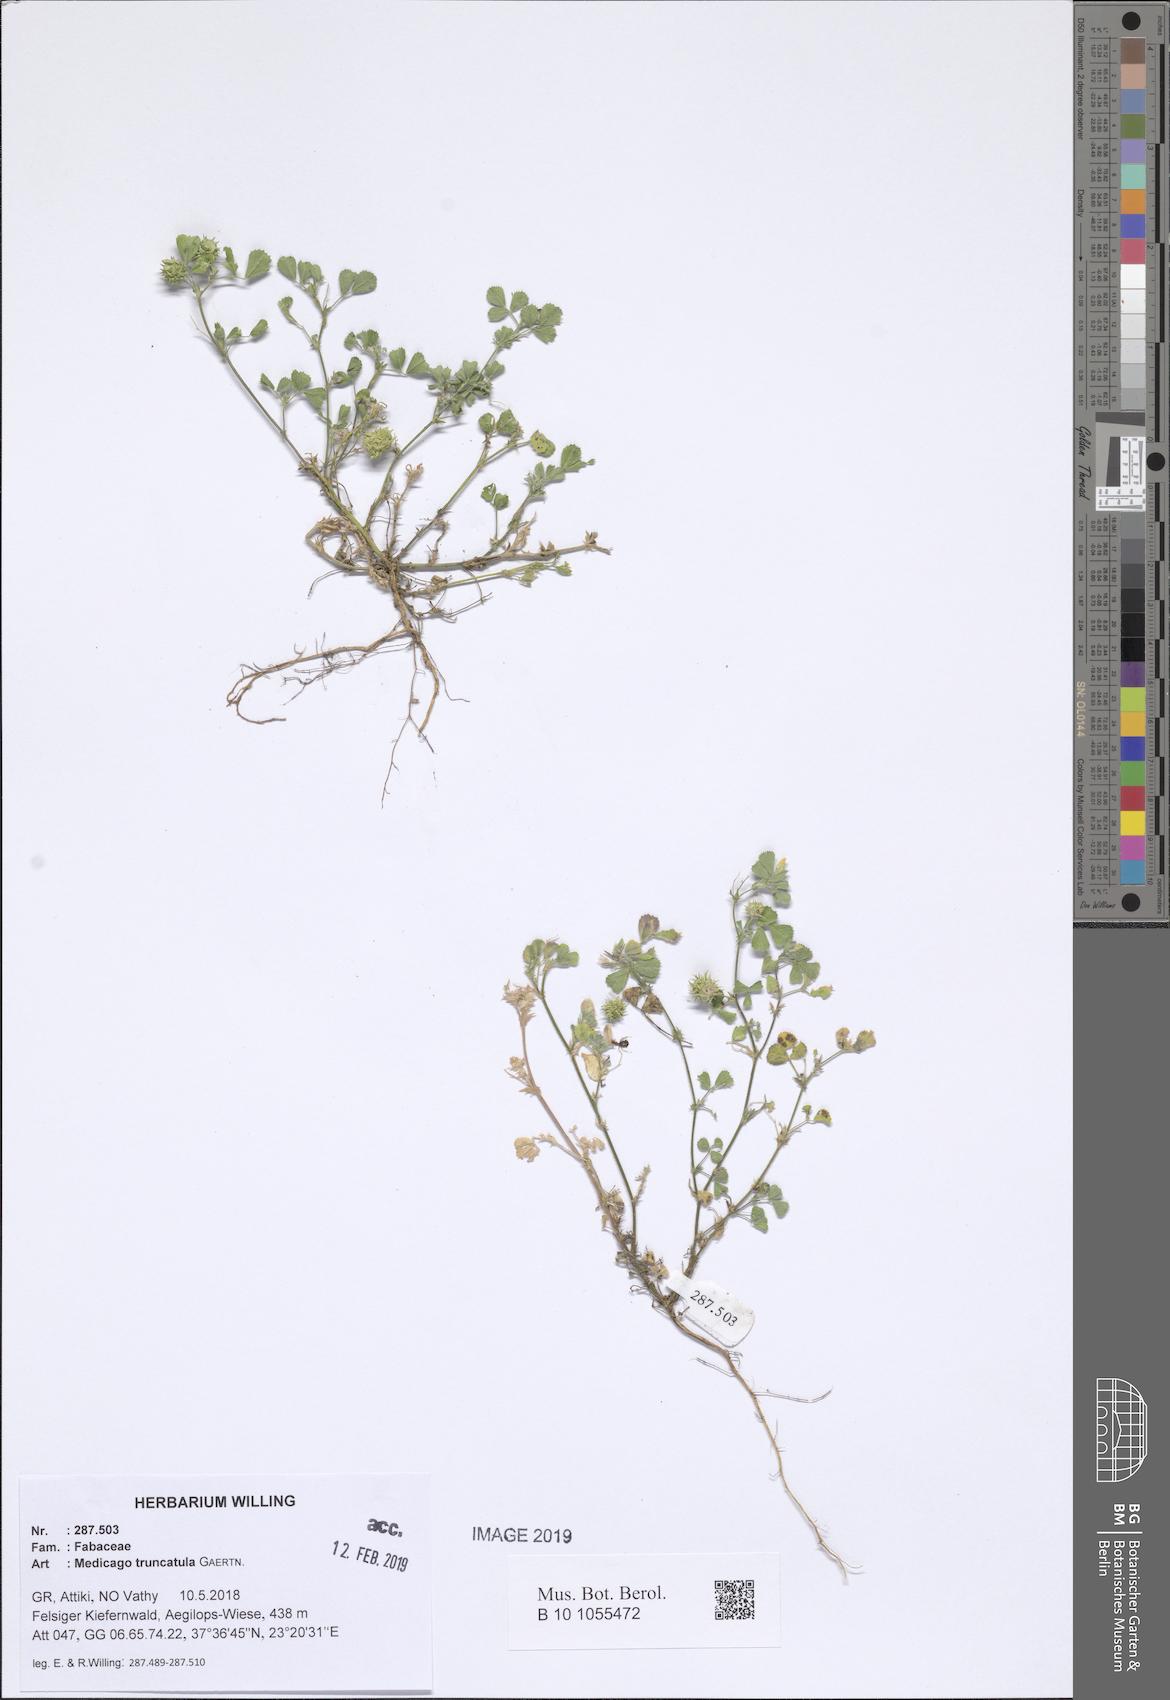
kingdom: Plantae
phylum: Tracheophyta
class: Magnoliopsida
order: Fabales
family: Fabaceae
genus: Medicago
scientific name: Medicago truncatula
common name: Strong-spined medick
